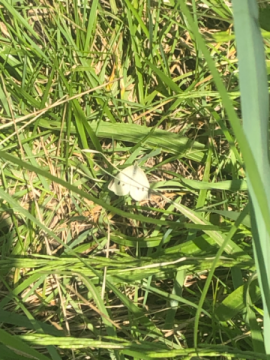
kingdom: Animalia
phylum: Arthropoda
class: Insecta
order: Lepidoptera
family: Pieridae
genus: Pieris
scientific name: Pieris rapae
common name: Cabbage White
